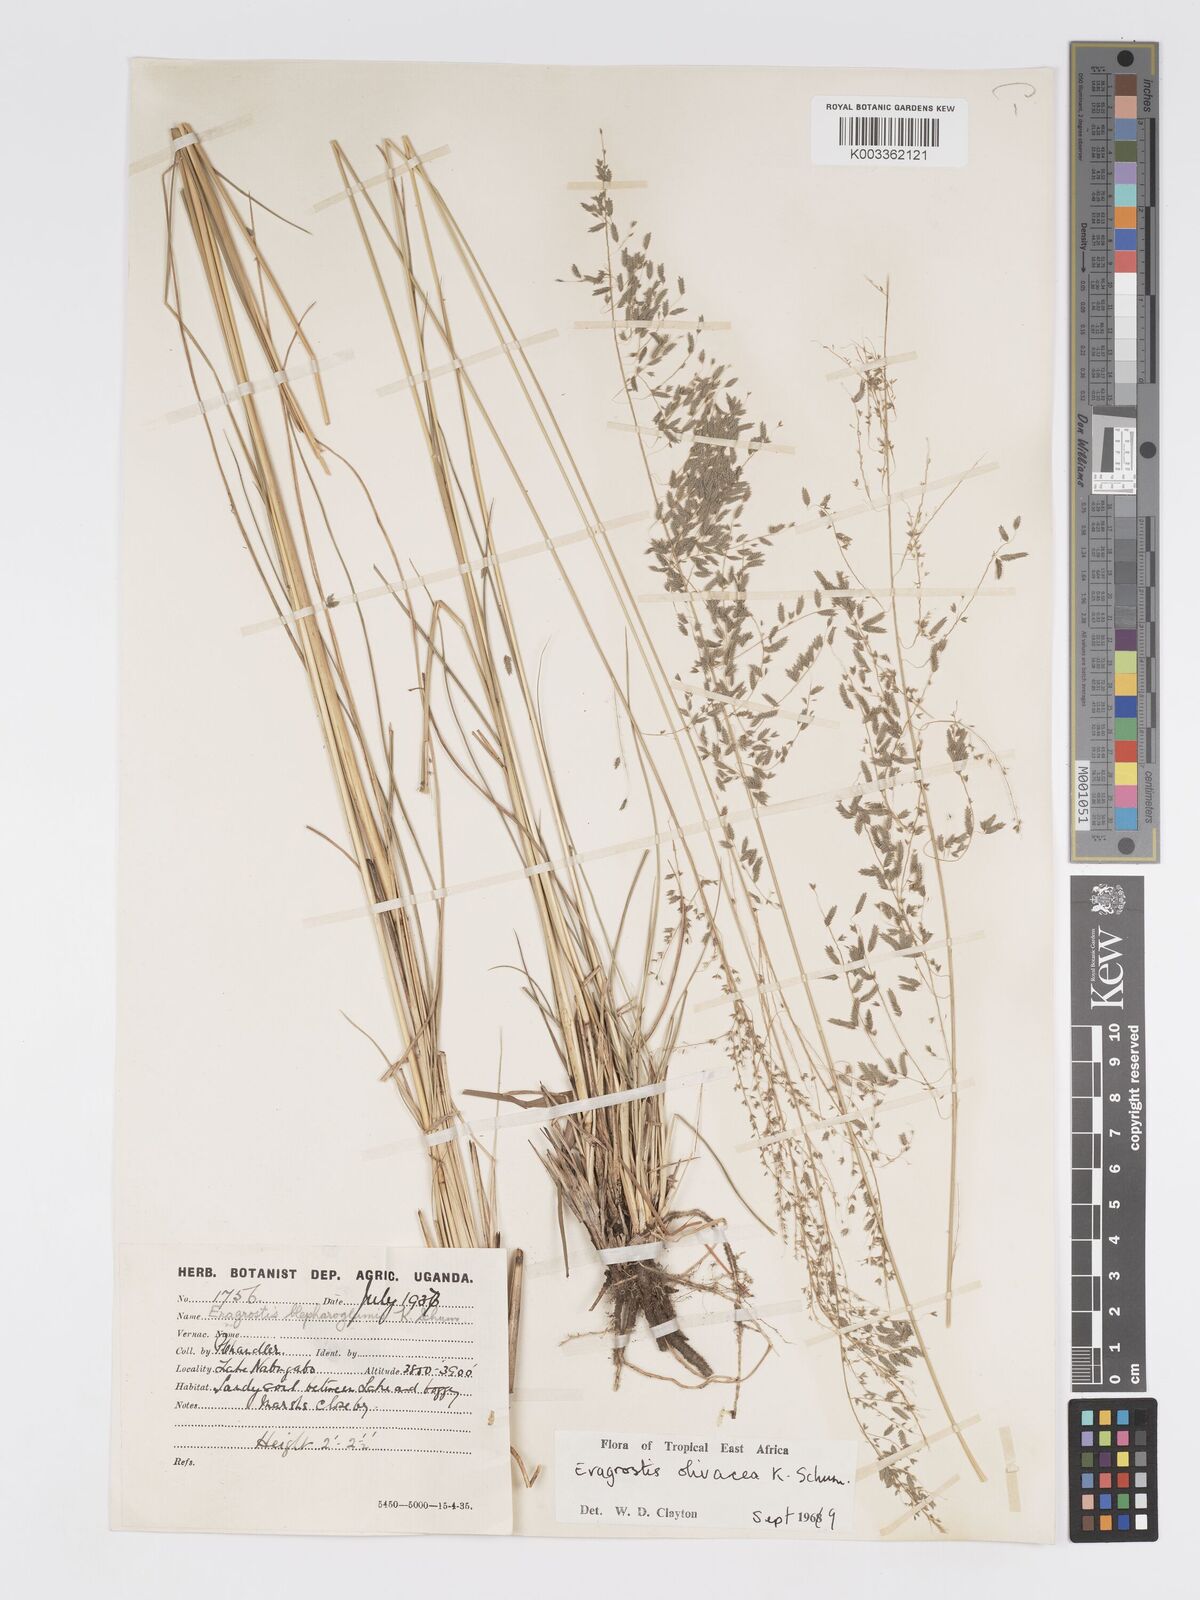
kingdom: Plantae
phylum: Tracheophyta
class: Liliopsida
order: Poales
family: Poaceae
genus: Eragrostis
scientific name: Eragrostis olivacea
